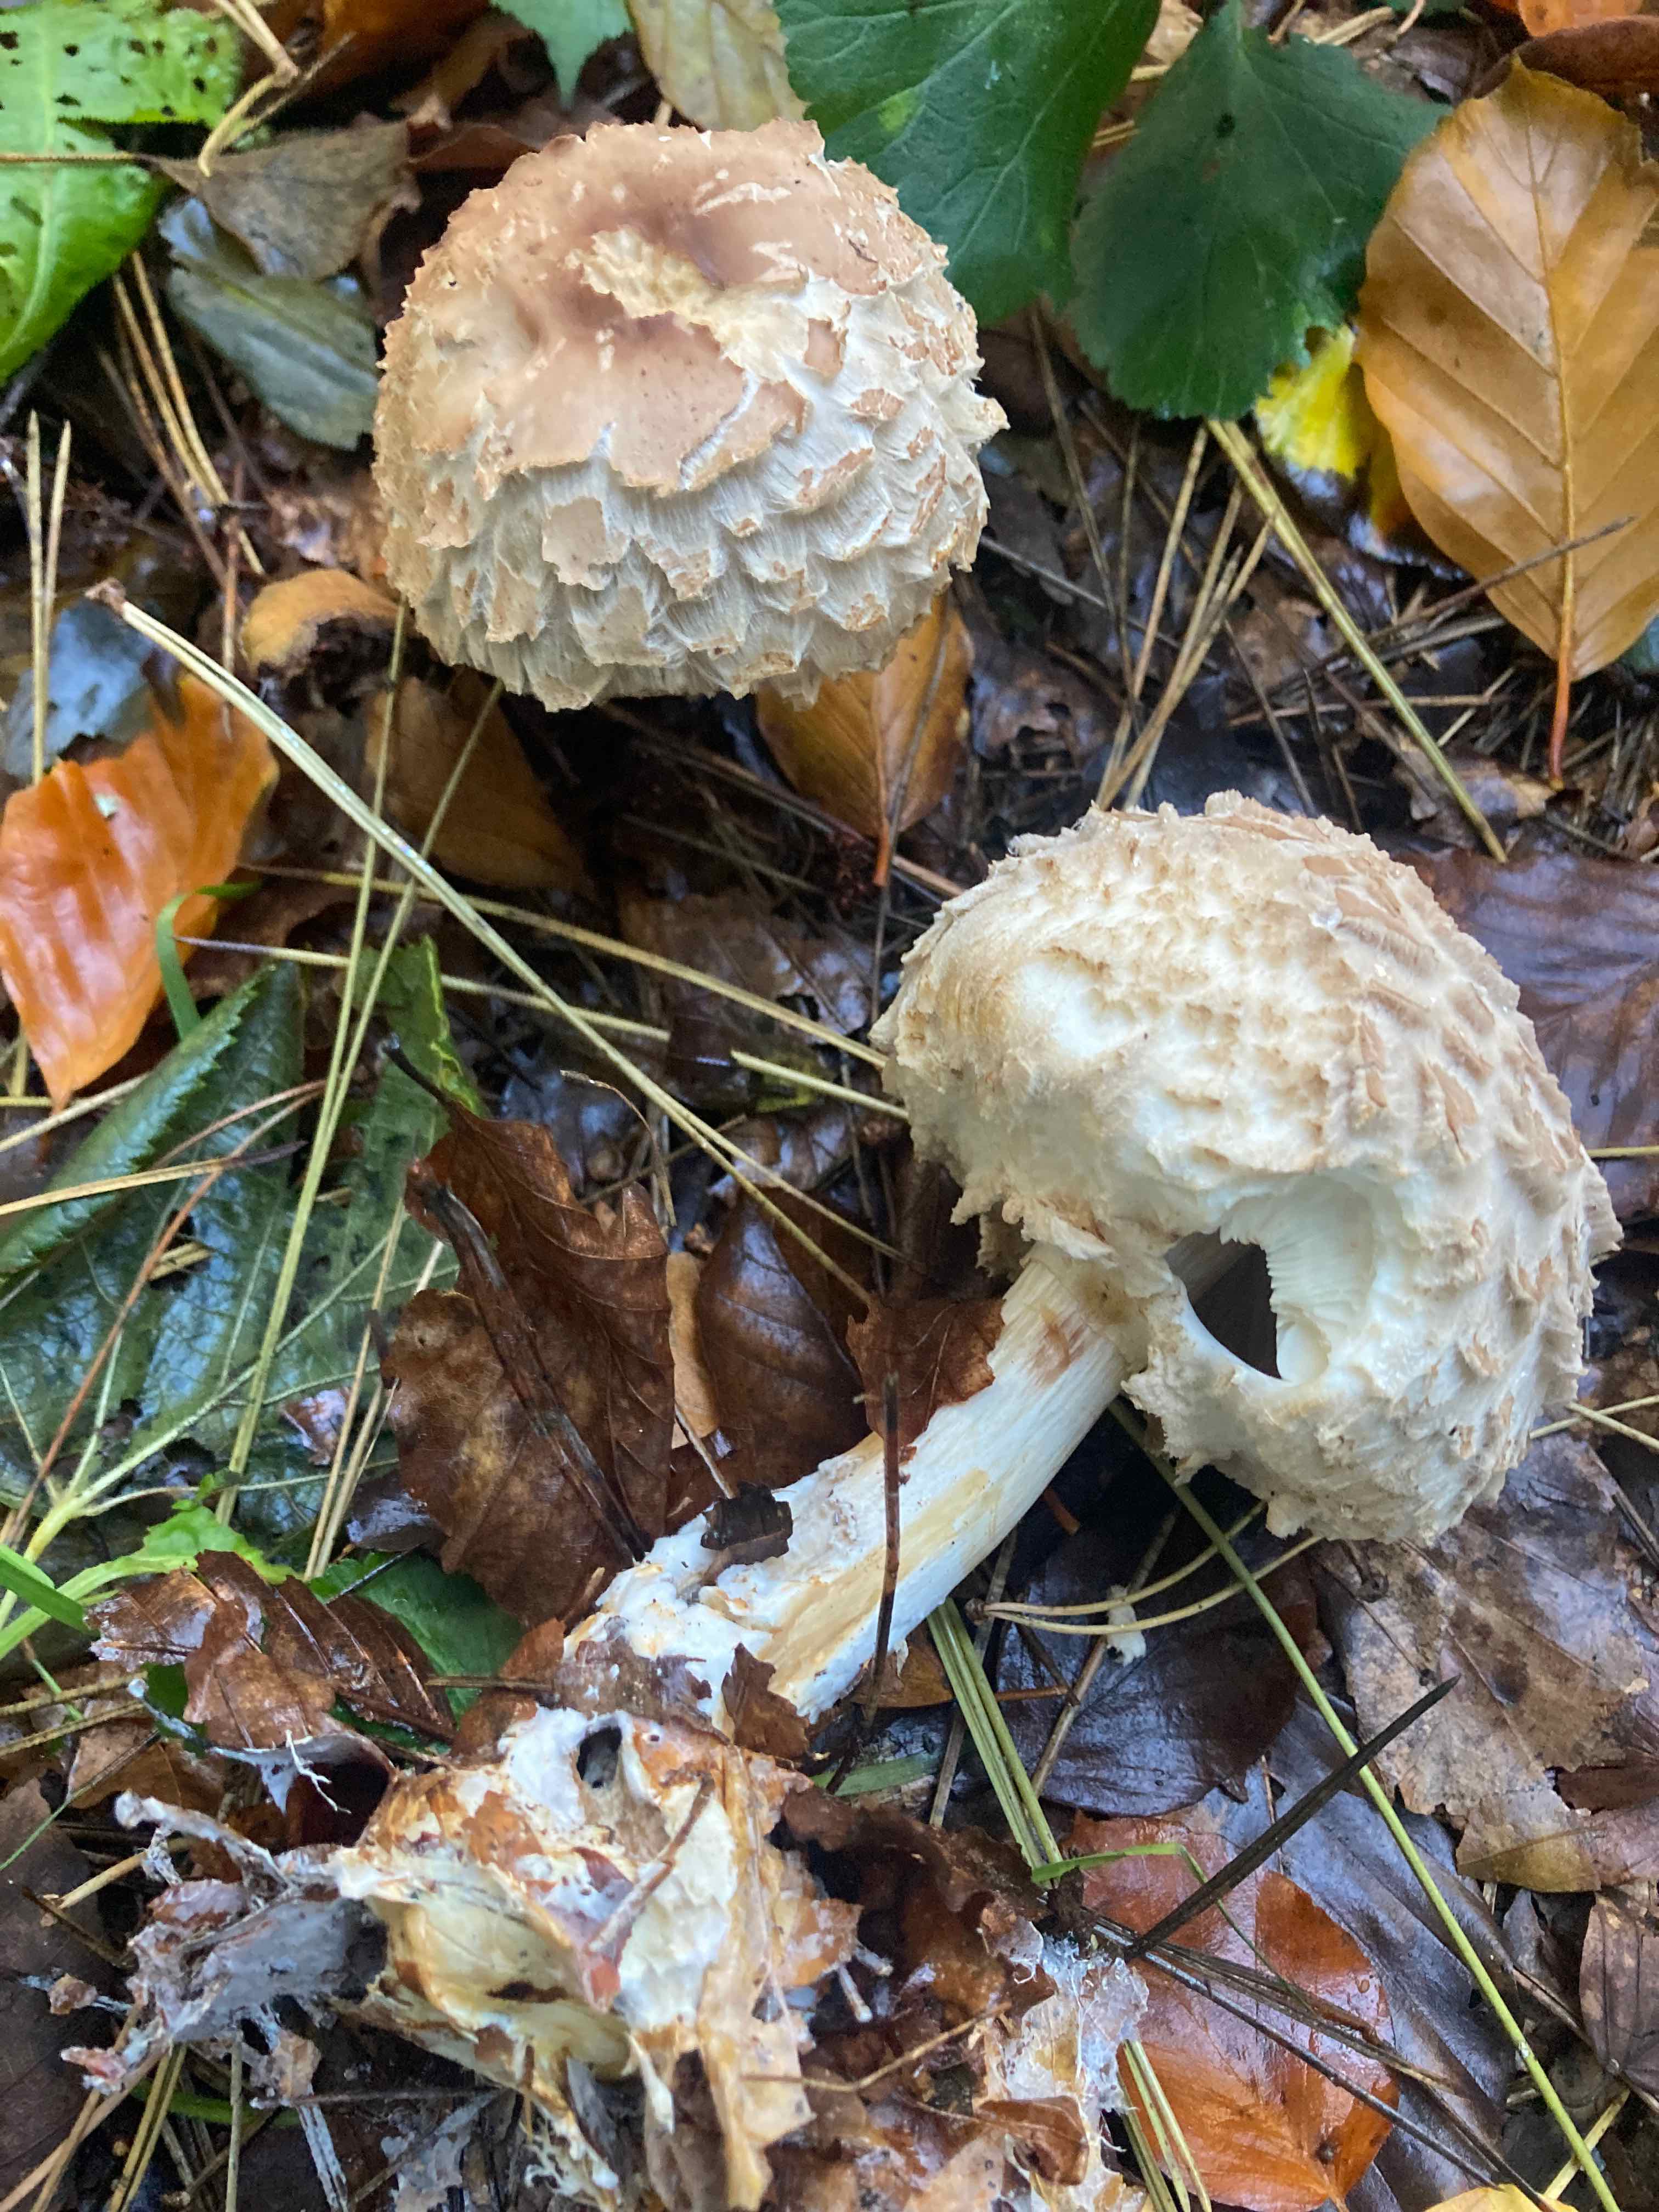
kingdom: Fungi
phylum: Basidiomycota
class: Agaricomycetes
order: Agaricales
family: Agaricaceae
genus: Chlorophyllum
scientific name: Chlorophyllum olivieri
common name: almindelig rabarberhat
